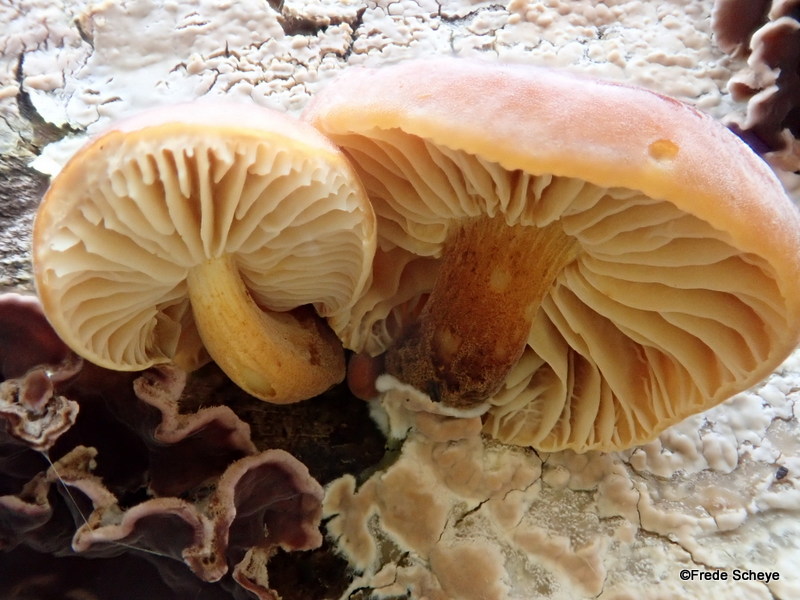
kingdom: Fungi
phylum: Basidiomycota
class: Agaricomycetes
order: Agaricales
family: Physalacriaceae
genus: Flammulina
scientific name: Flammulina velutipes
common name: gul fløjlsfod
